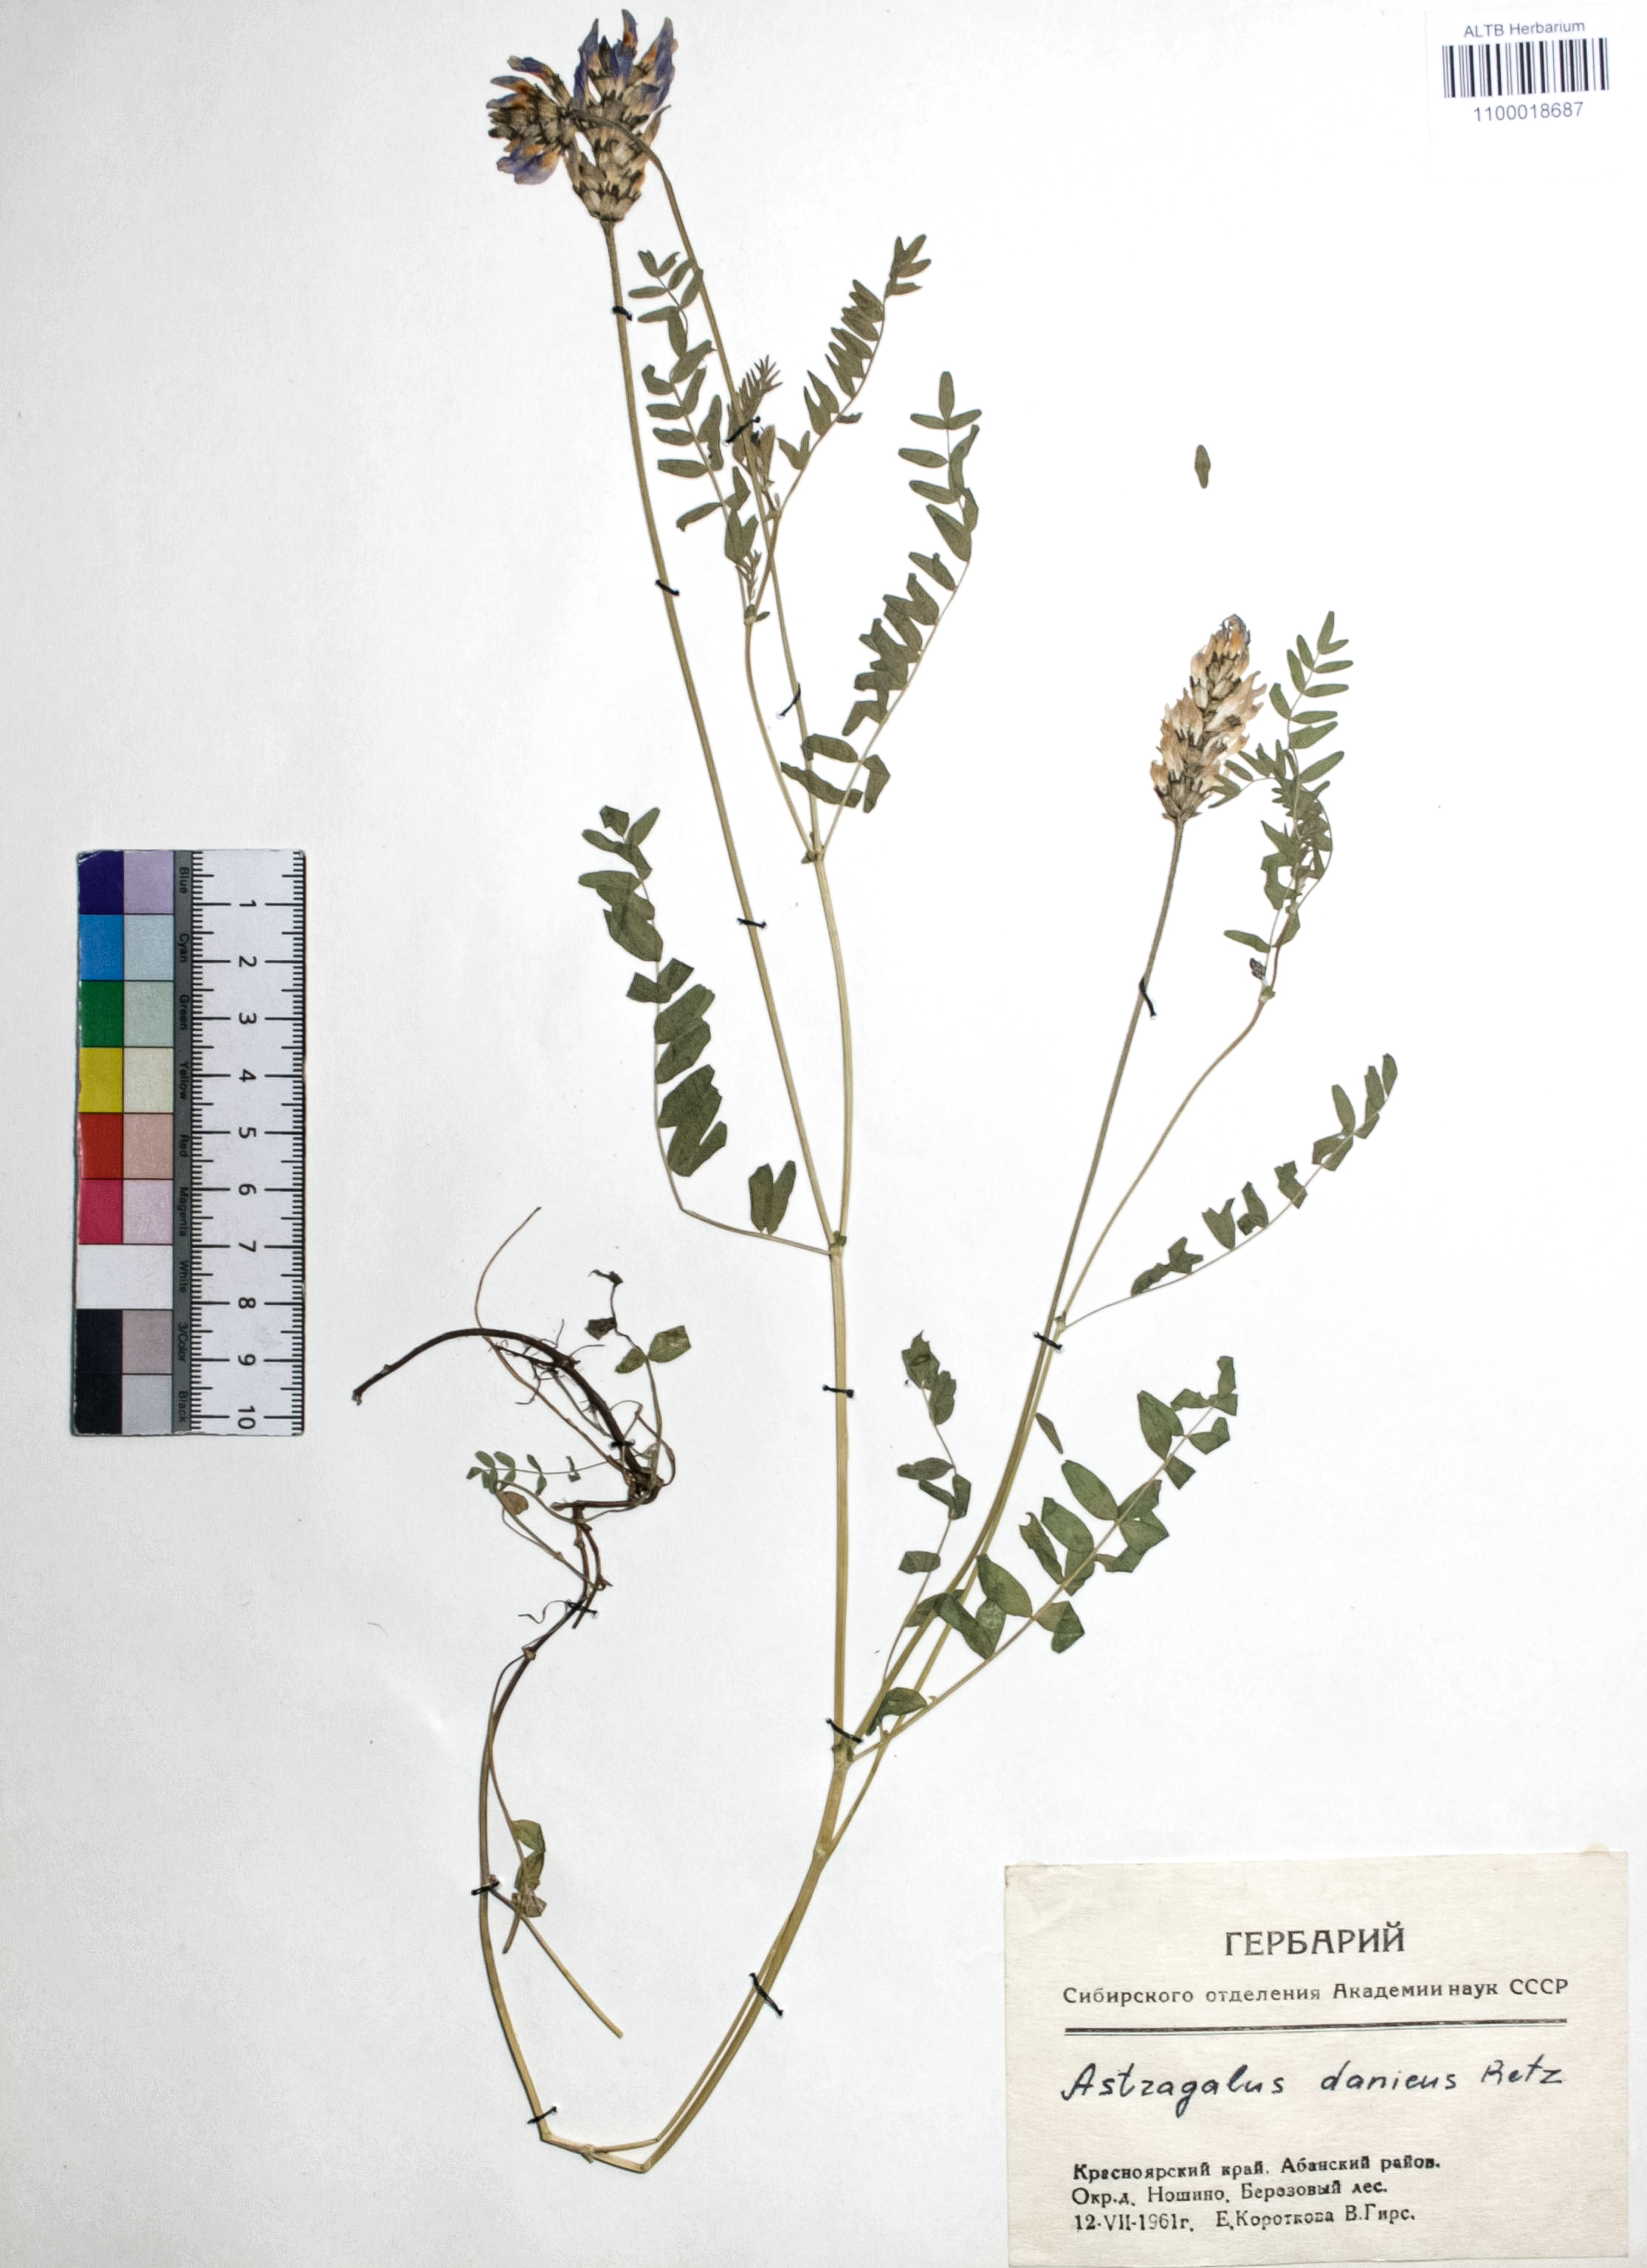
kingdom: Plantae
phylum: Tracheophyta
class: Magnoliopsida
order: Fabales
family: Fabaceae
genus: Astragalus
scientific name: Astragalus danicus
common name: Purple milk-vetch
